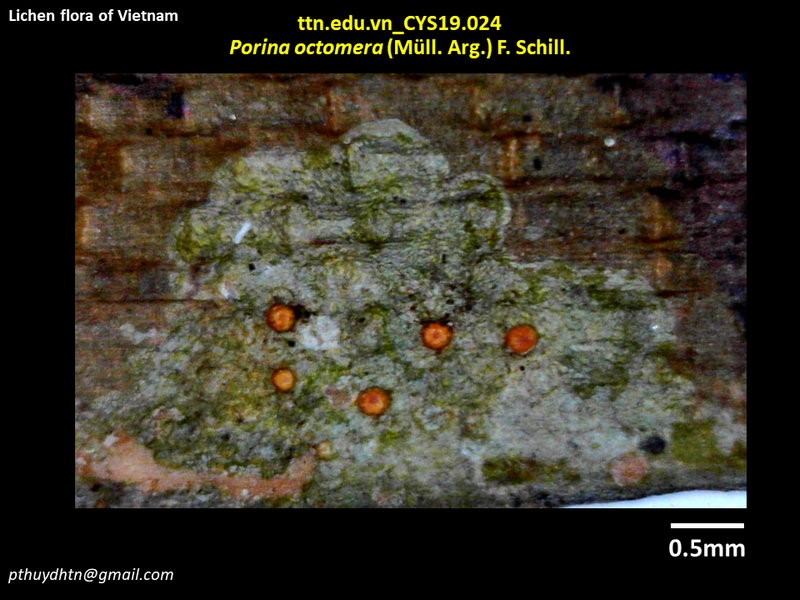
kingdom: Fungi
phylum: Ascomycota
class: Lecanoromycetes
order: Pertusariales
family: Pertusariaceae
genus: Segestria
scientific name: Segestria octomera
